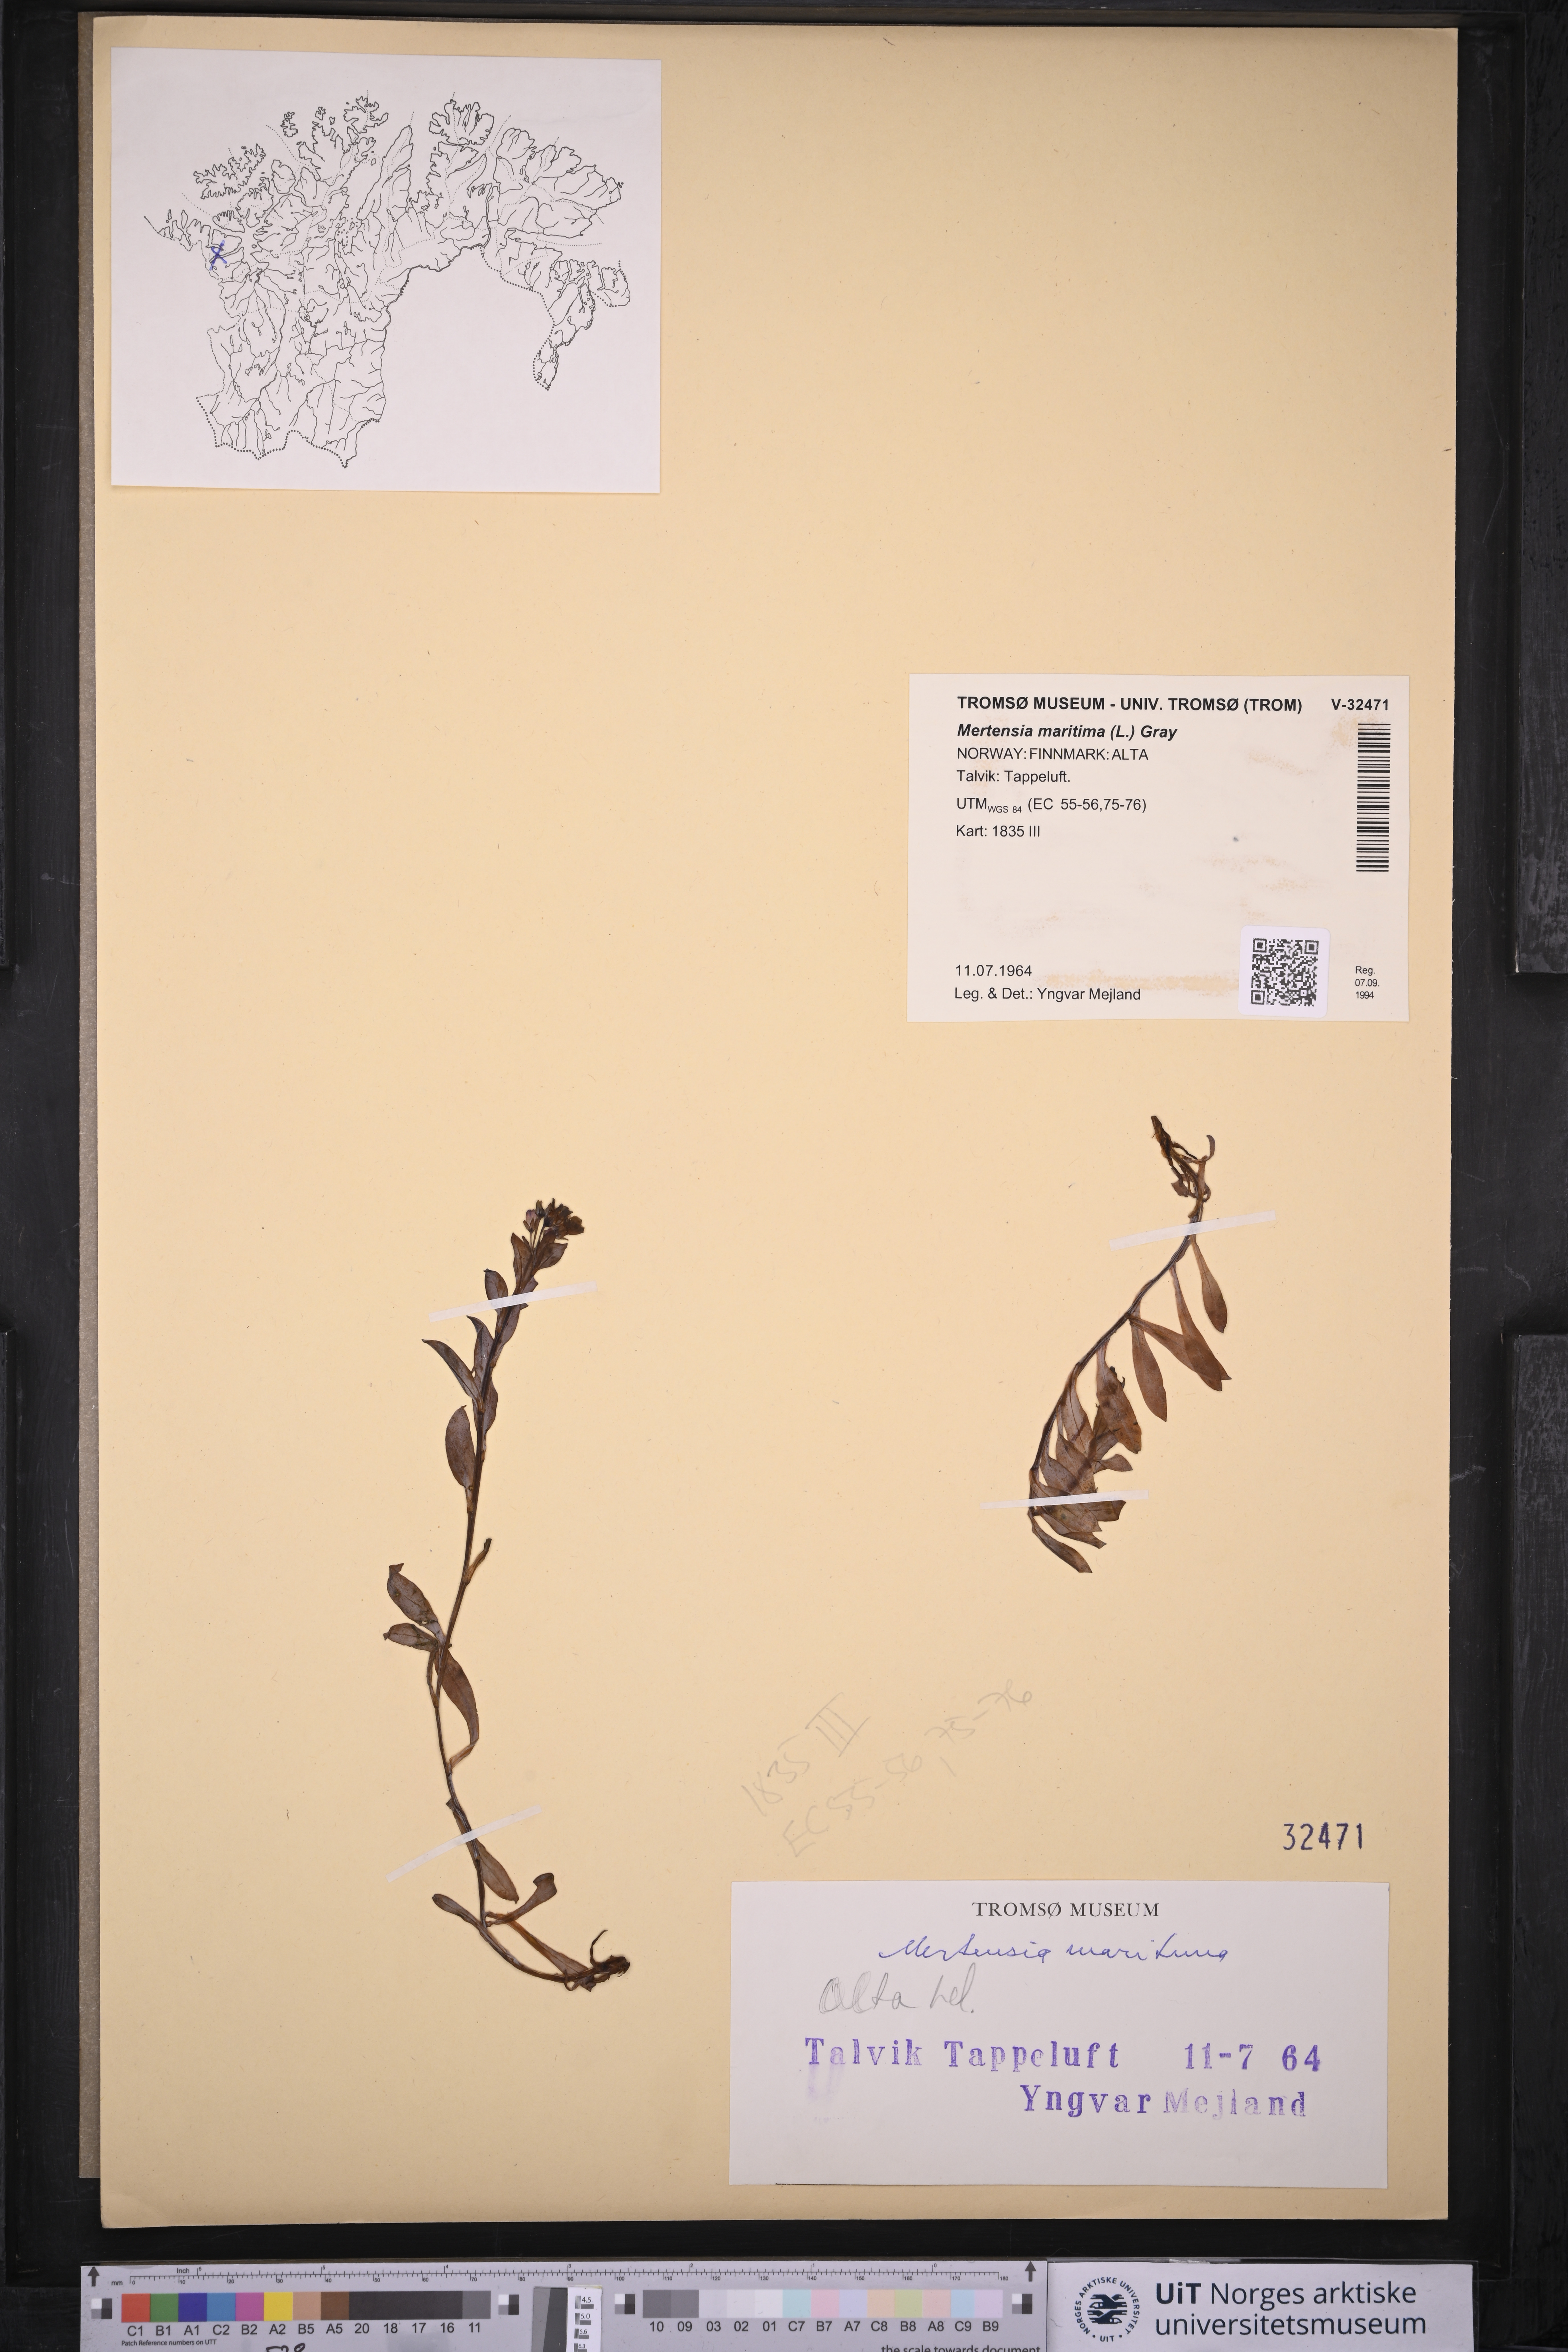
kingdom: Plantae
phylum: Tracheophyta
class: Magnoliopsida
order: Boraginales
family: Boraginaceae
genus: Mertensia
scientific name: Mertensia maritima
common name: Oysterplant
